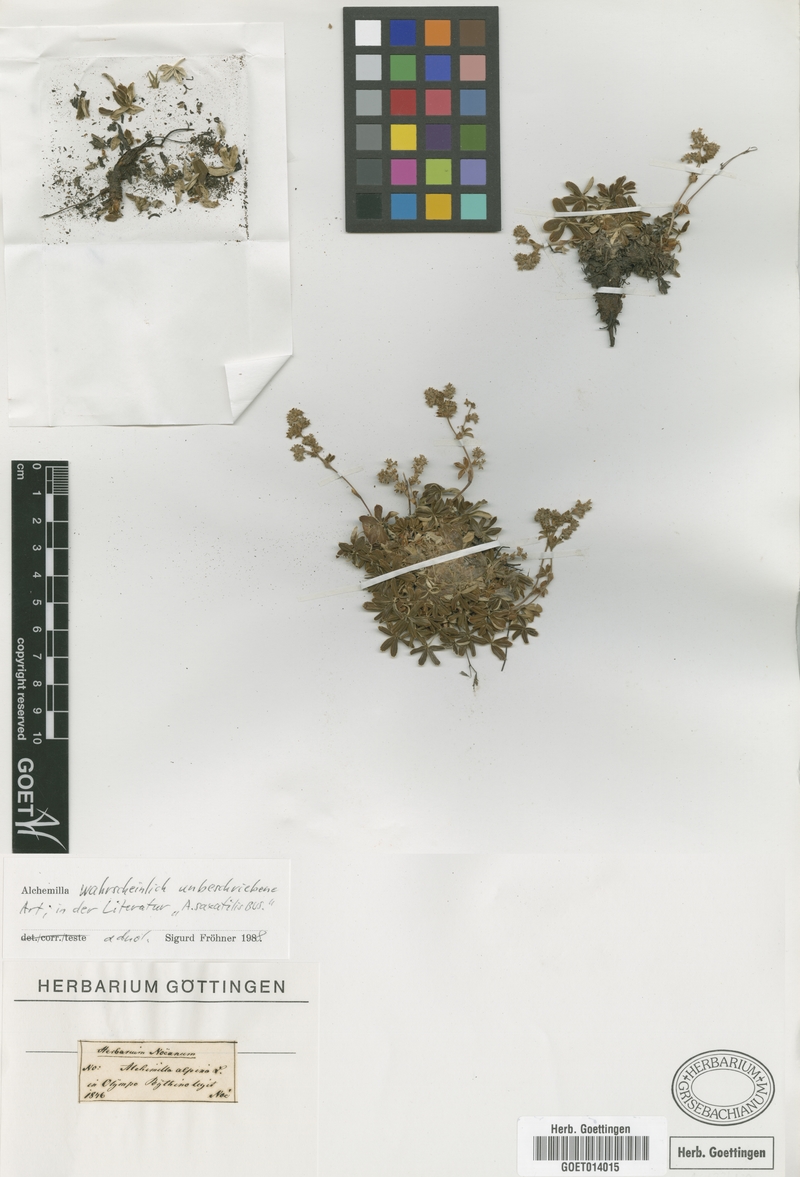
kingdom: Plantae
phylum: Tracheophyta
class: Magnoliopsida
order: Rosales
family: Rosaceae
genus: Alchemilla
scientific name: Alchemilla
